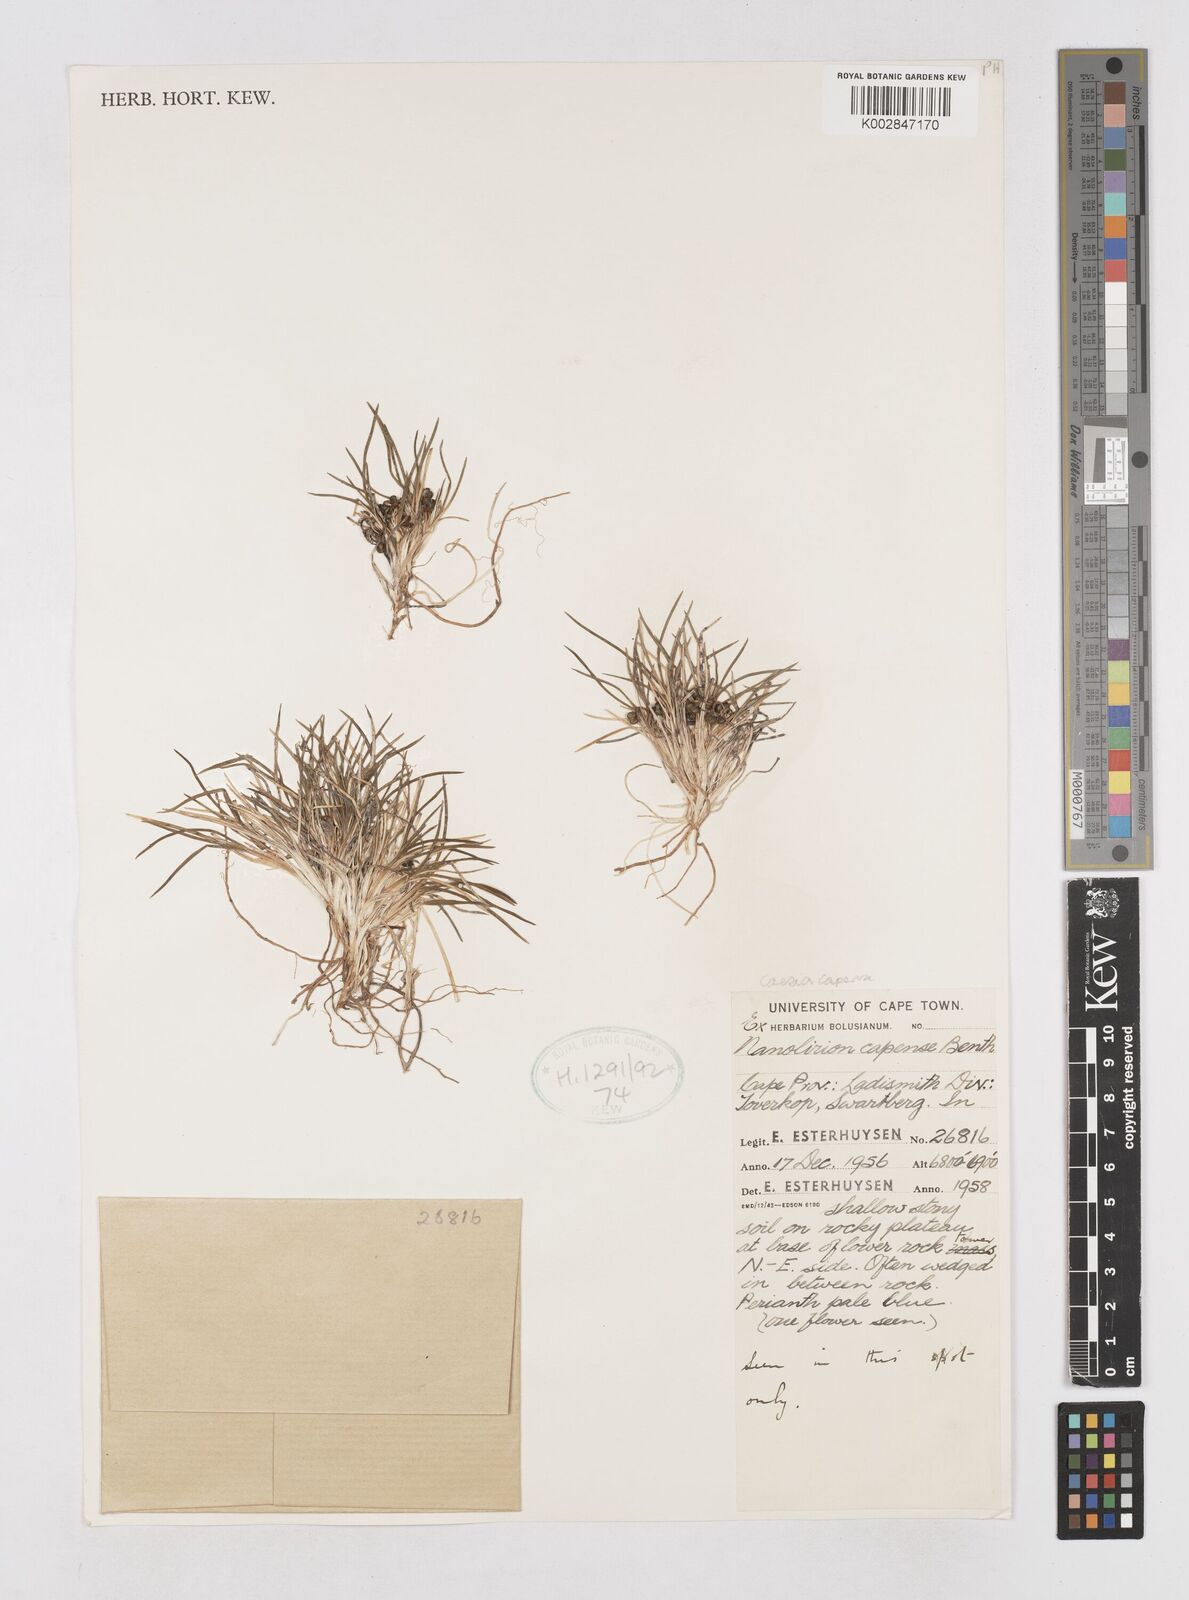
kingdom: Plantae
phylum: Tracheophyta
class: Liliopsida
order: Asparagales
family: Asphodelaceae
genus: Caesia
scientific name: Caesia capensis
